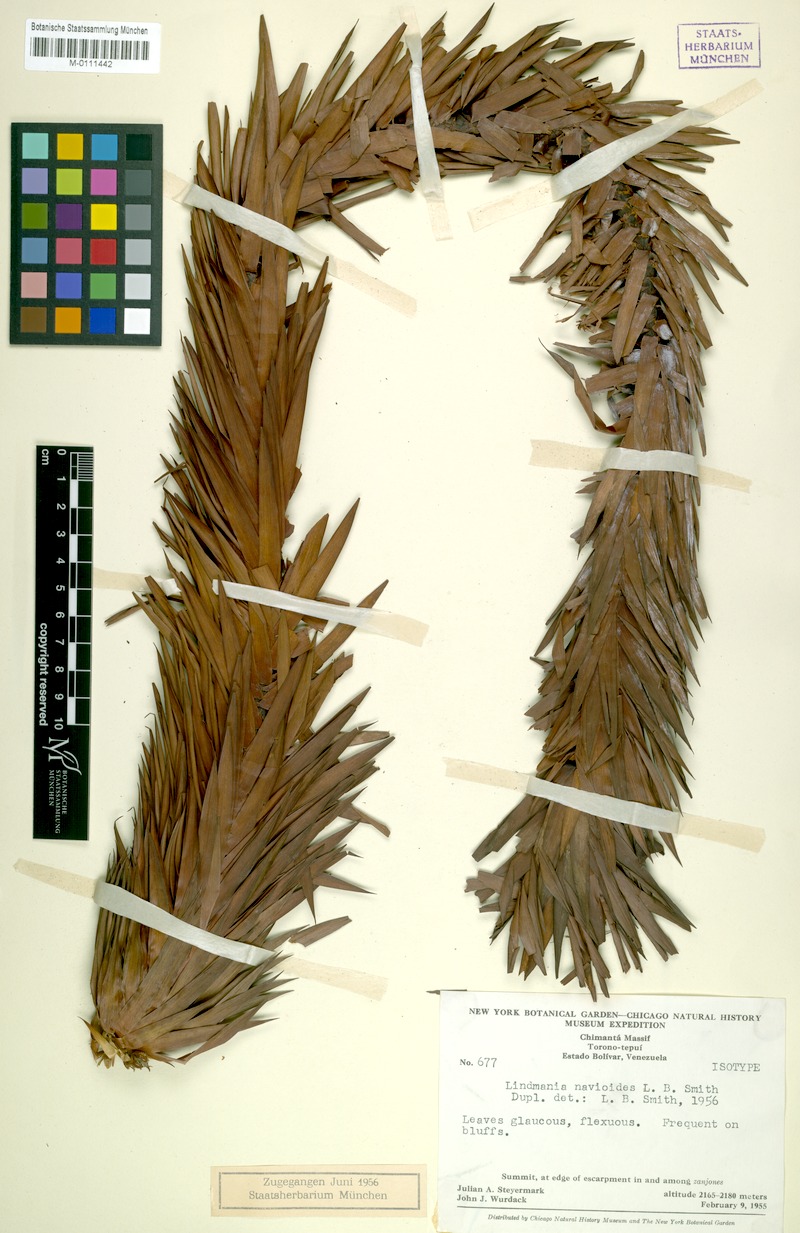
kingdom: Plantae
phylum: Tracheophyta
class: Liliopsida
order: Poales
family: Bromeliaceae
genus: Lindmania
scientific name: Lindmania navioides
